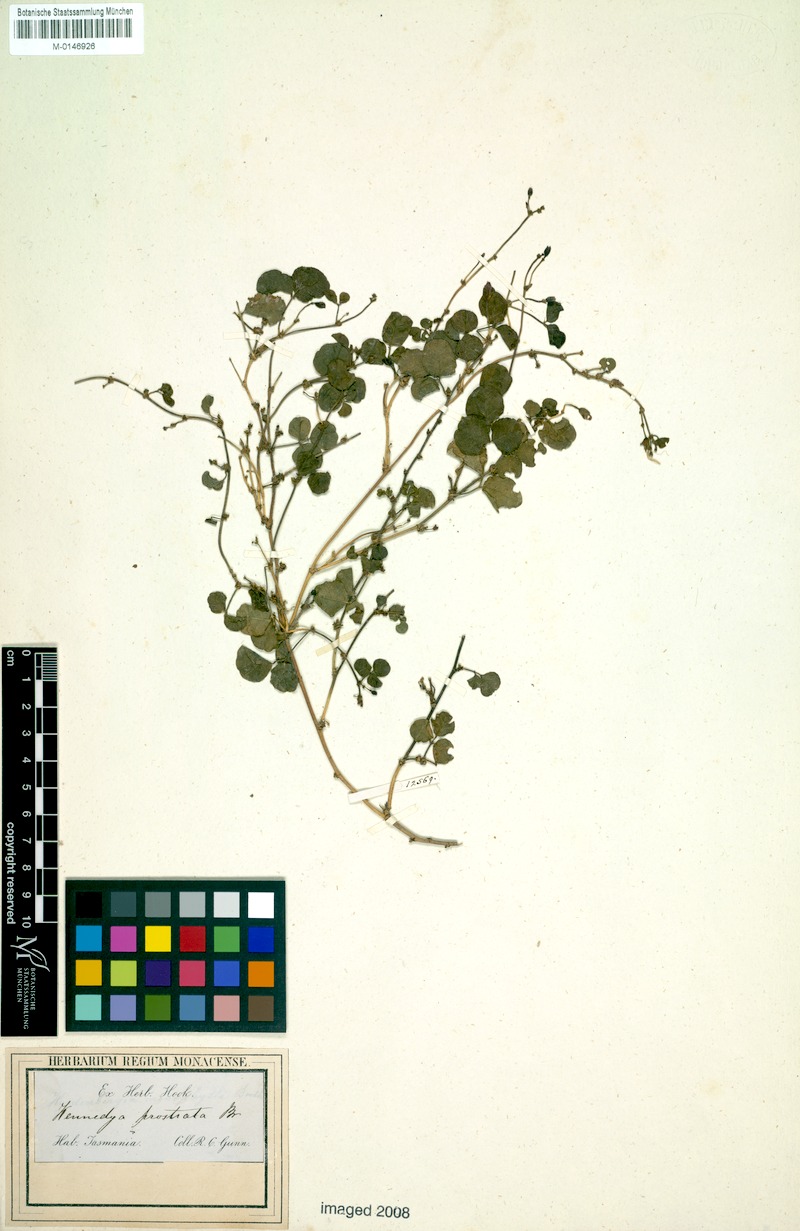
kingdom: Plantae
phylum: Tracheophyta
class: Magnoliopsida
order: Fabales
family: Fabaceae
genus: Kennedia
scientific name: Kennedia prostrata
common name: Running-postman
